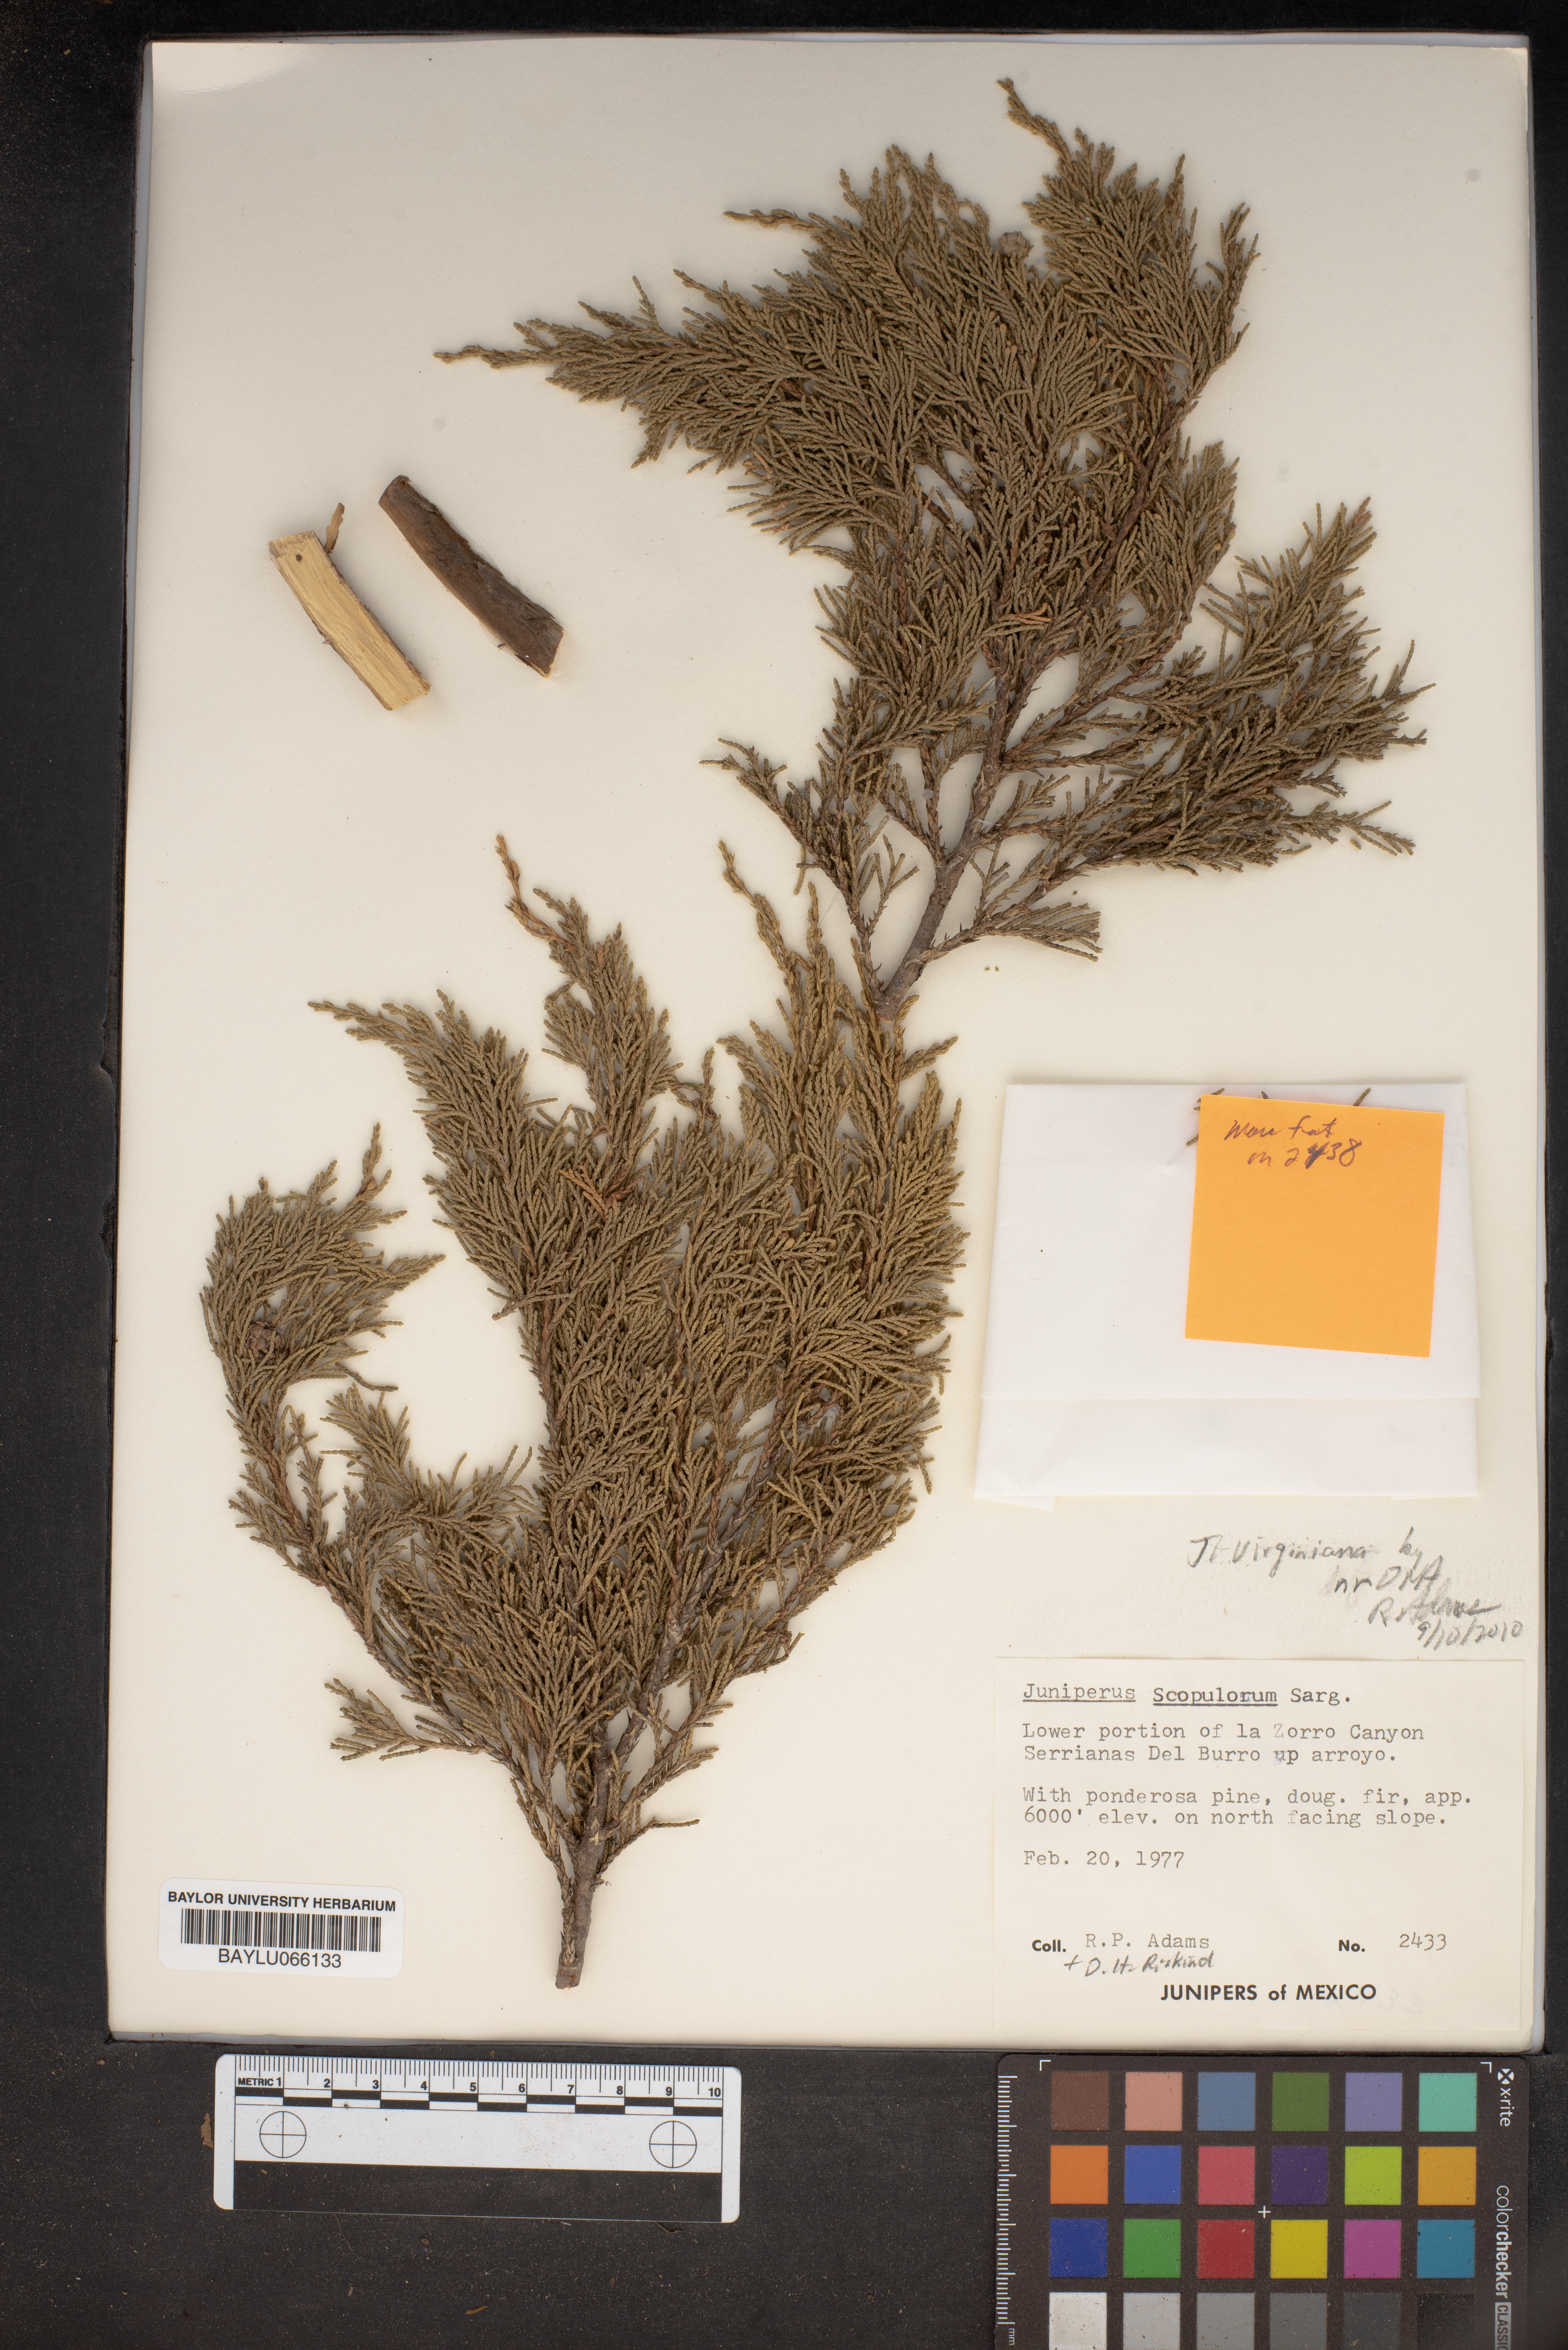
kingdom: Plantae
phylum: Tracheophyta
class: Pinopsida
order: Pinales
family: Cupressaceae
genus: Juniperus
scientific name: Juniperus scopulorum
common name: Rocky mountain juniper
